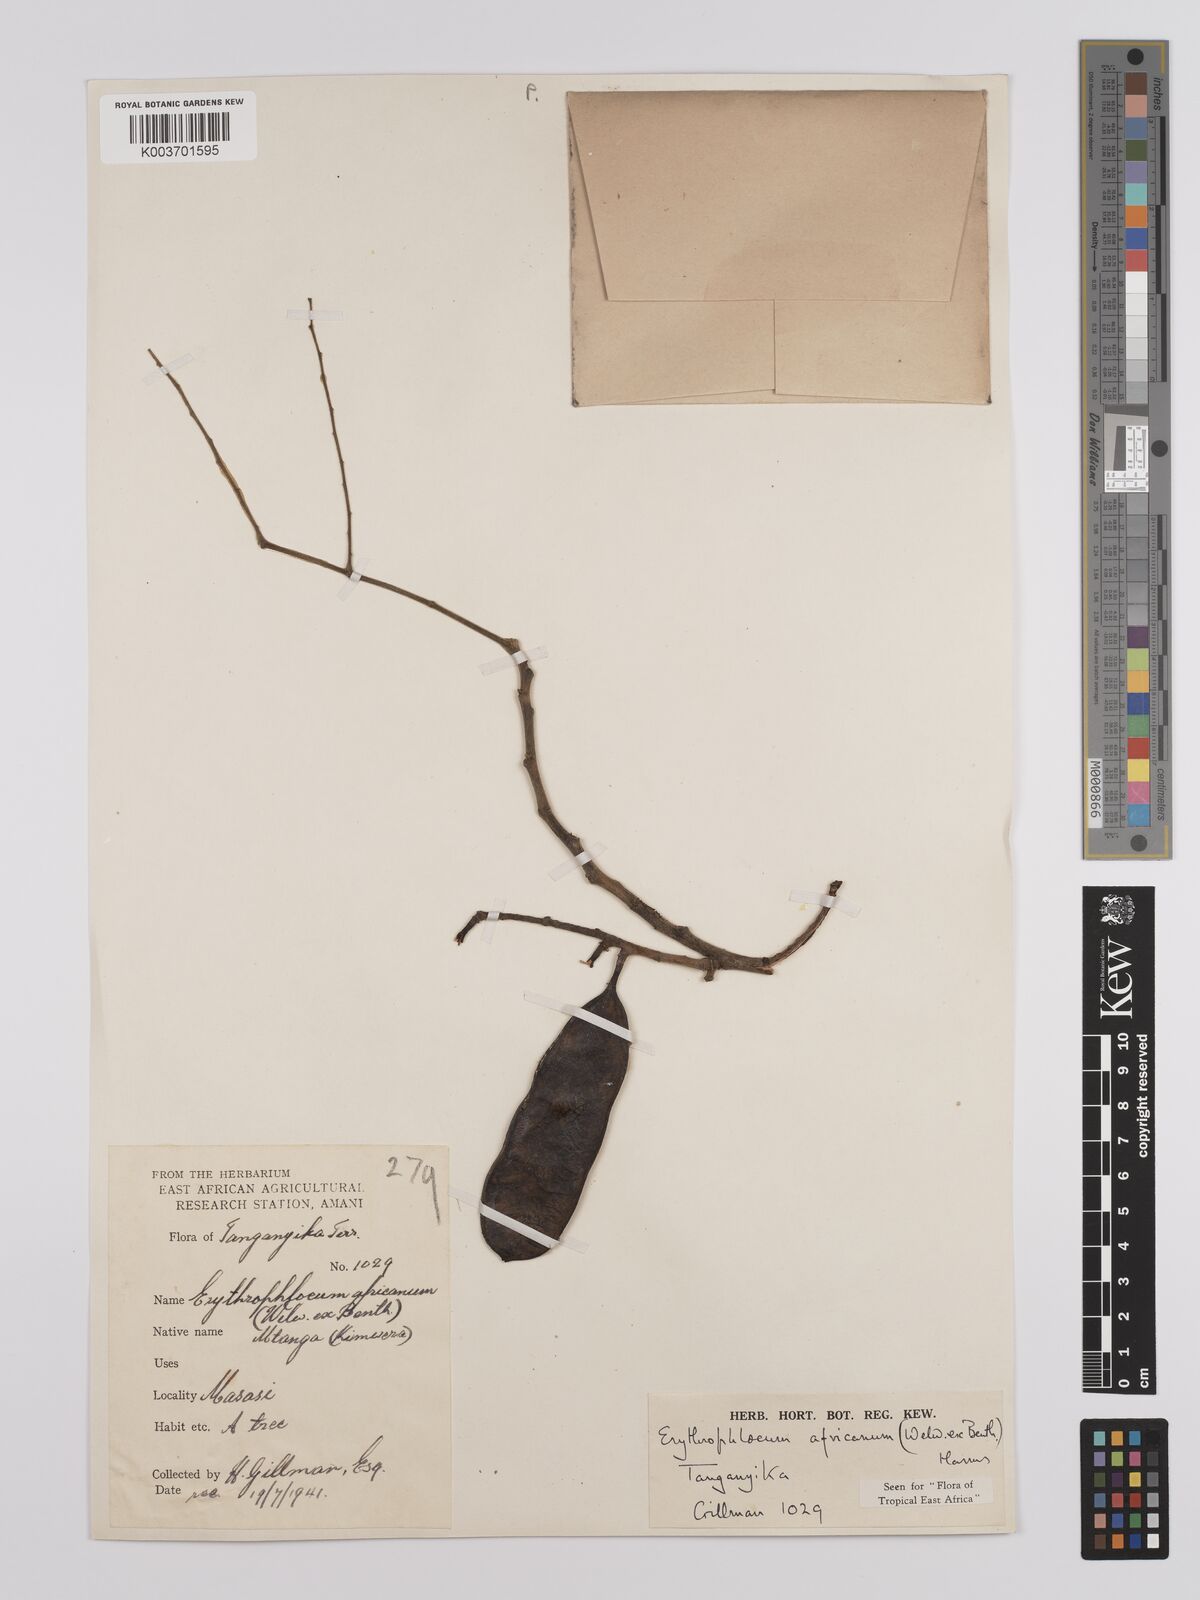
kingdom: Plantae
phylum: Tracheophyta
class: Magnoliopsida
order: Fabales
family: Fabaceae
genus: Erythrophleum
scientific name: Erythrophleum africanum
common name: African blackwood
